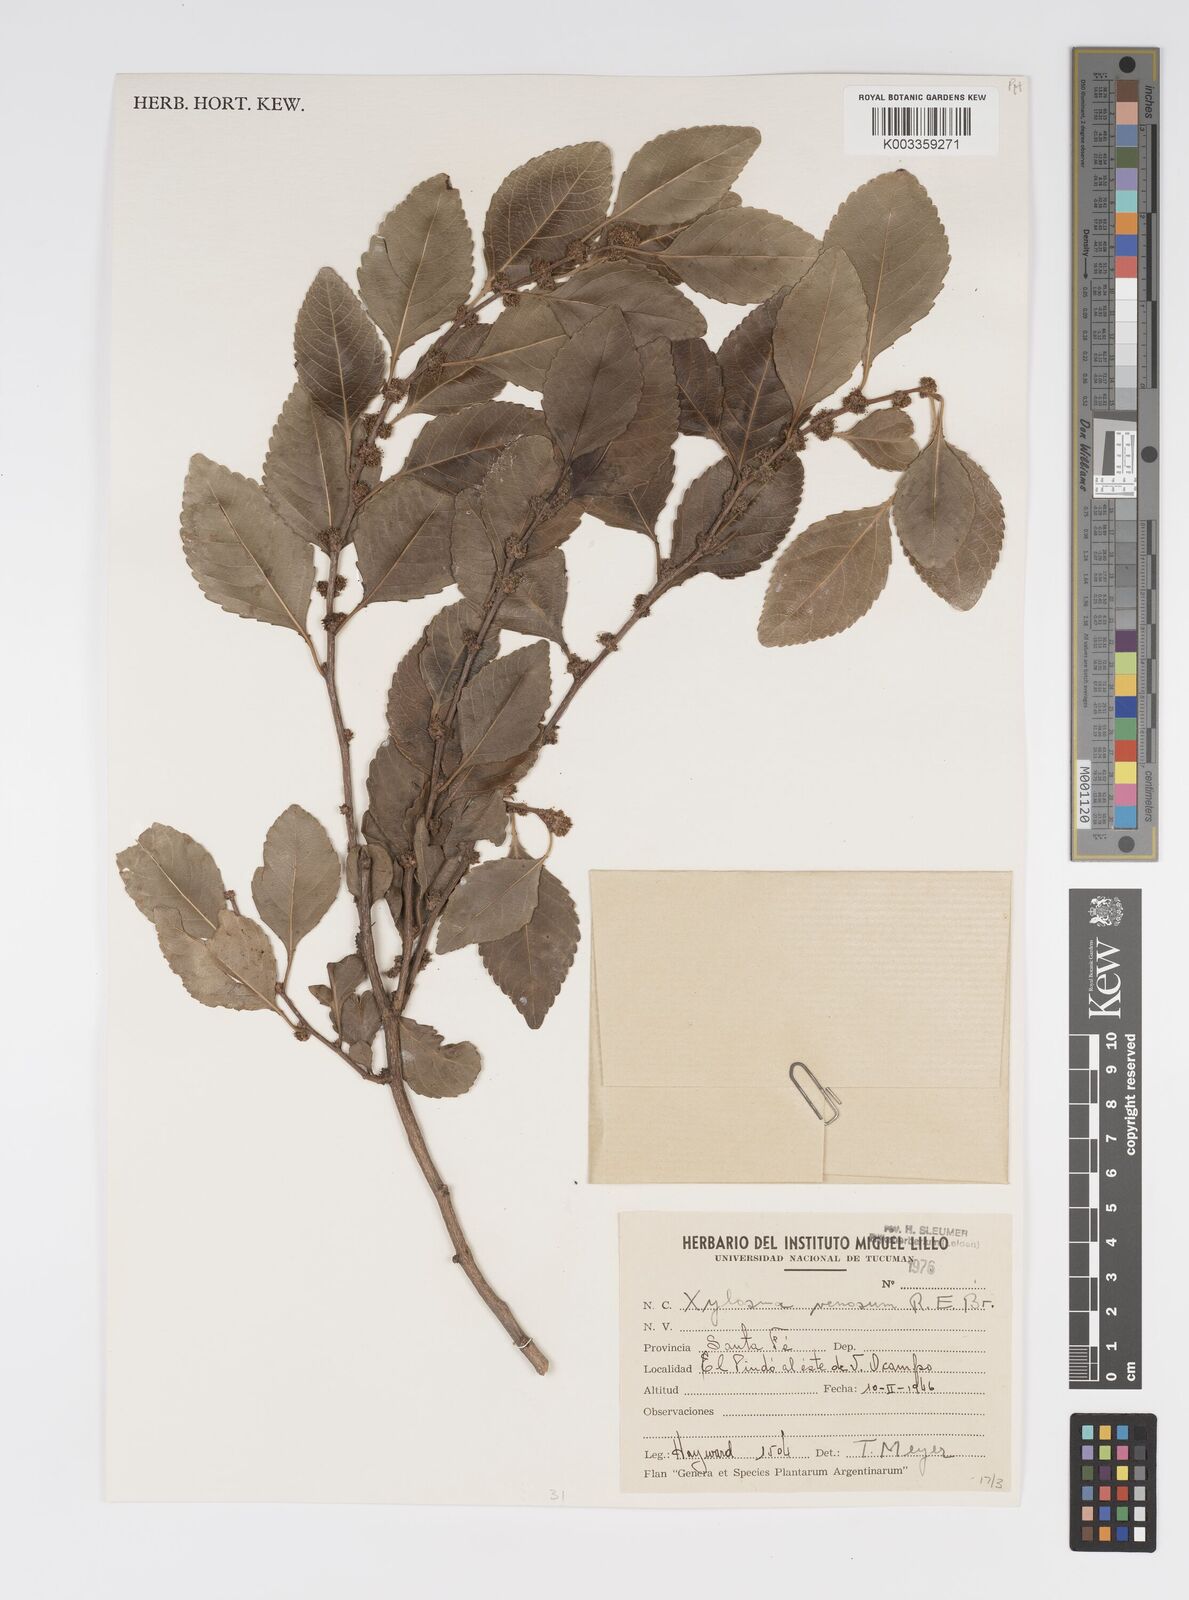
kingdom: Plantae
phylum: Tracheophyta
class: Magnoliopsida
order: Malpighiales
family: Salicaceae
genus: Xylosma
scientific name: Xylosma venosa
